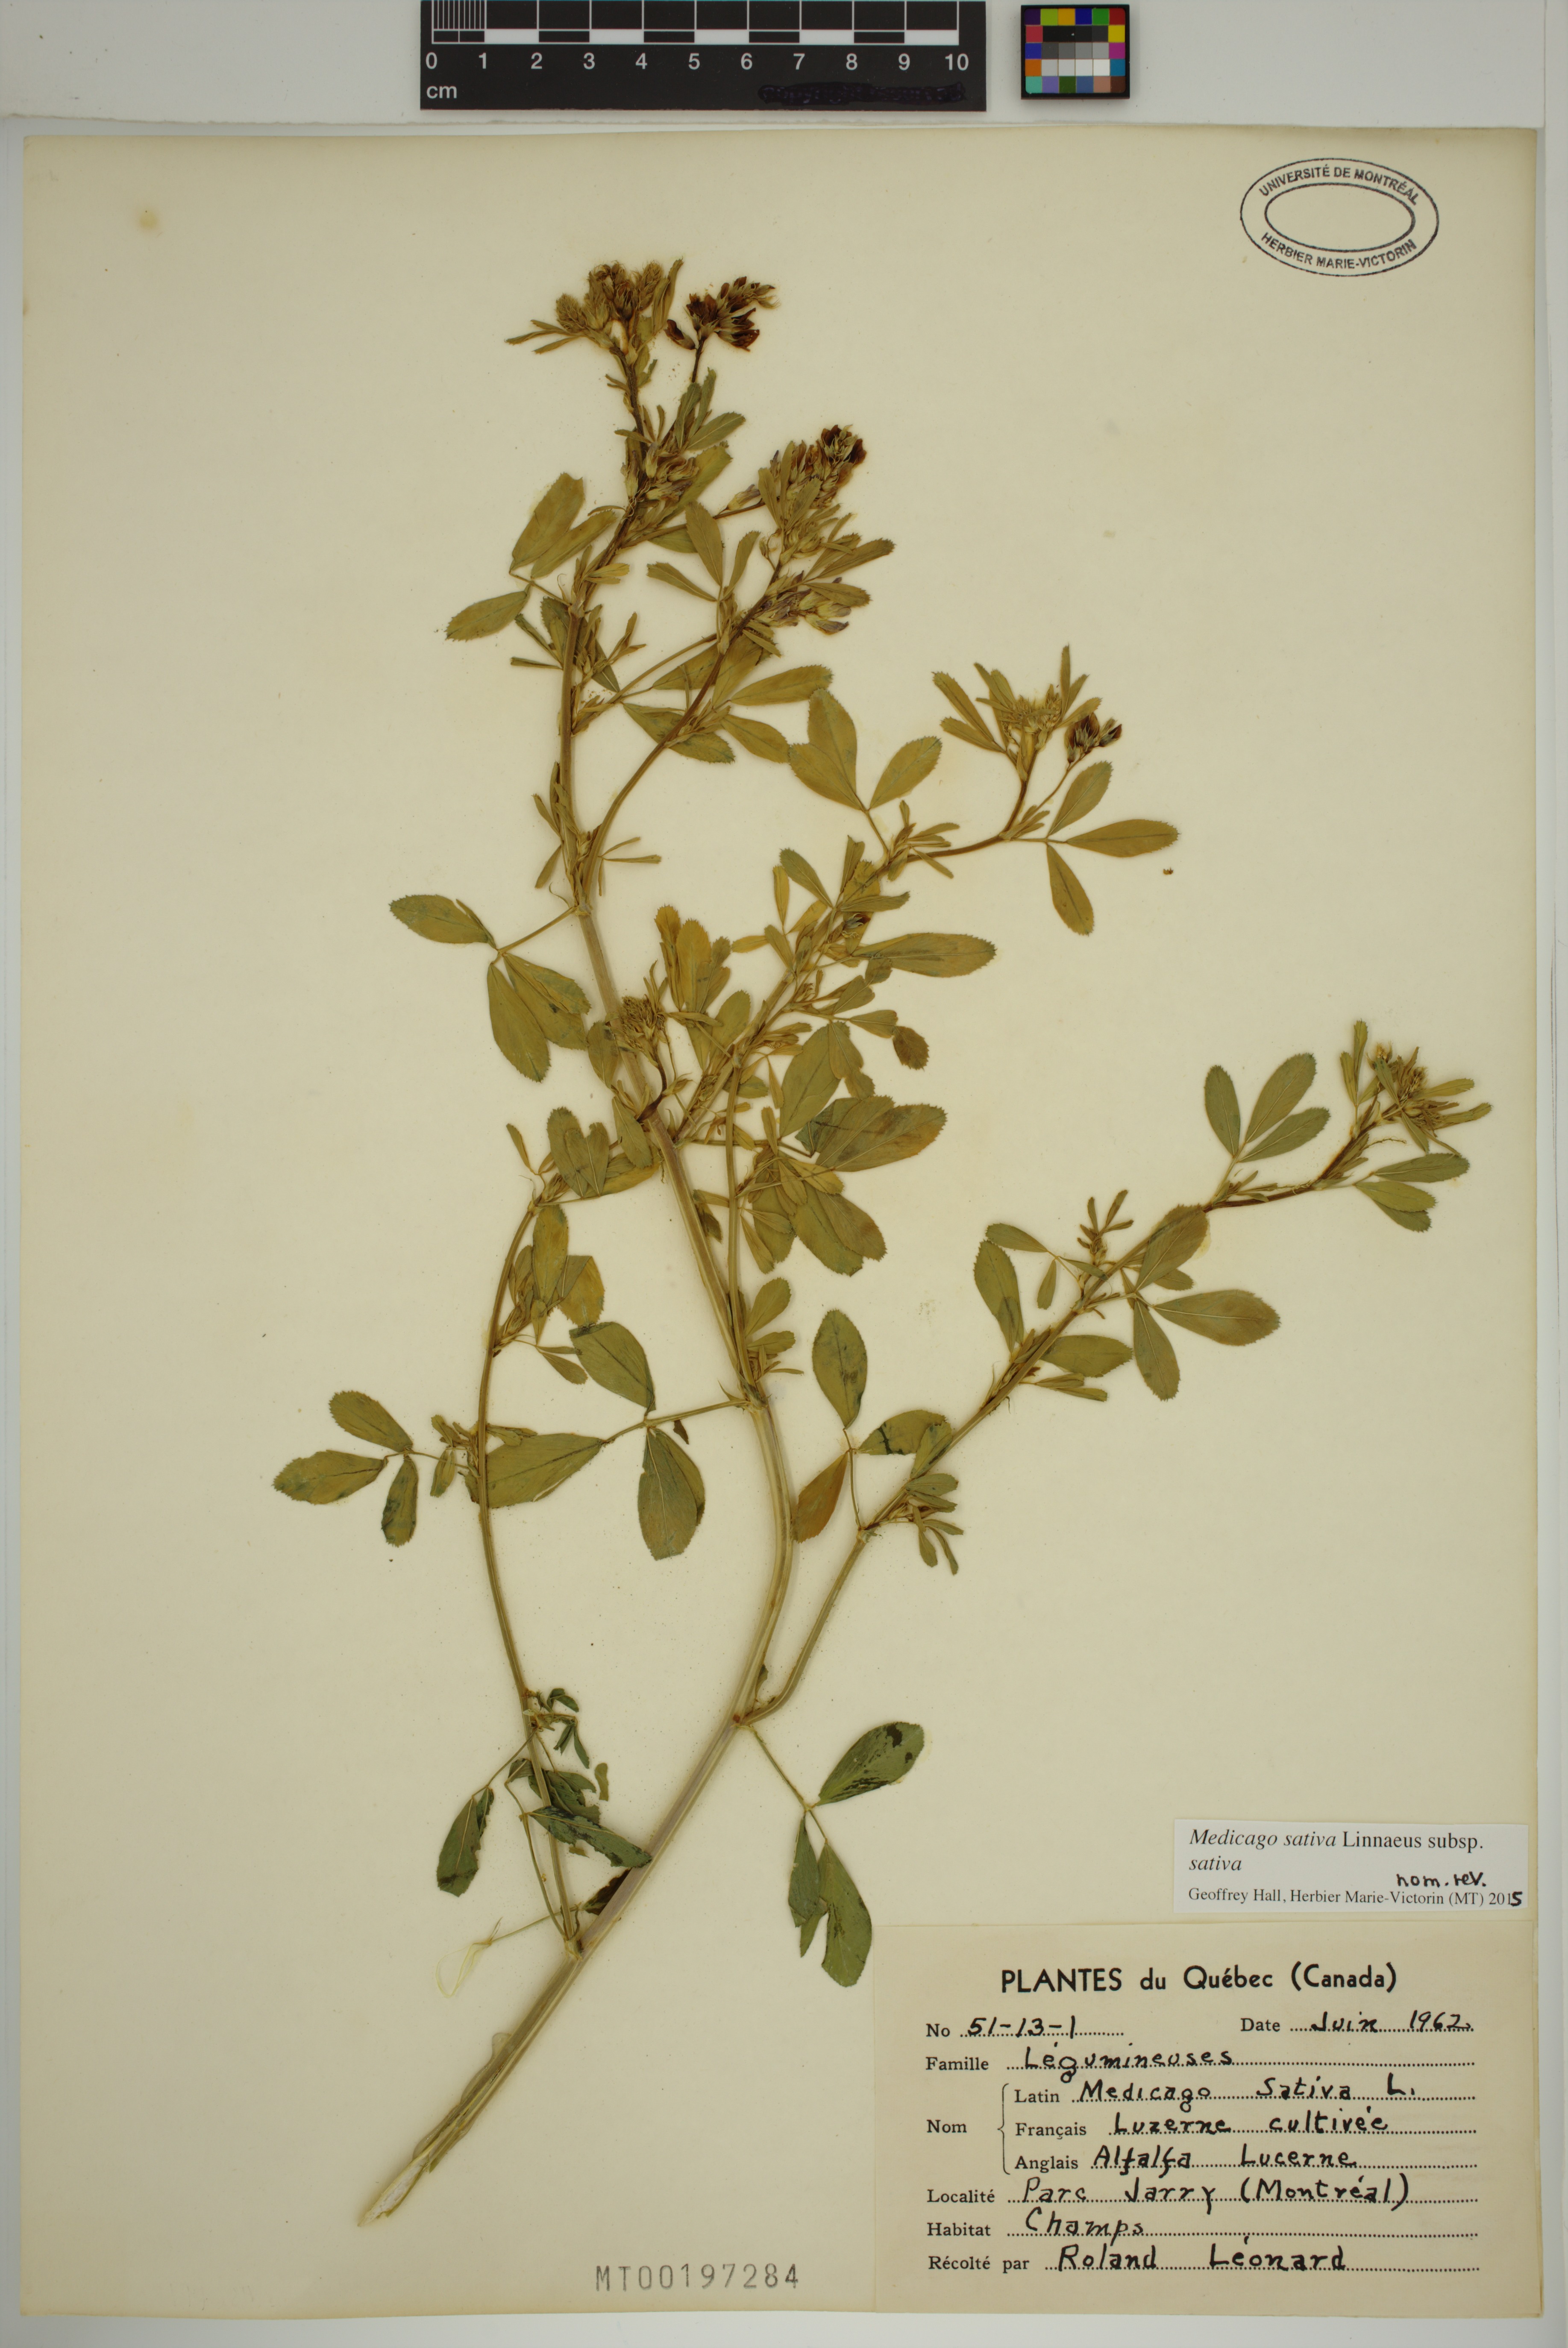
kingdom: Plantae
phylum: Tracheophyta
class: Magnoliopsida
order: Fabales
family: Fabaceae
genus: Medicago
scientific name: Medicago sativa
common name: Alfalfa
